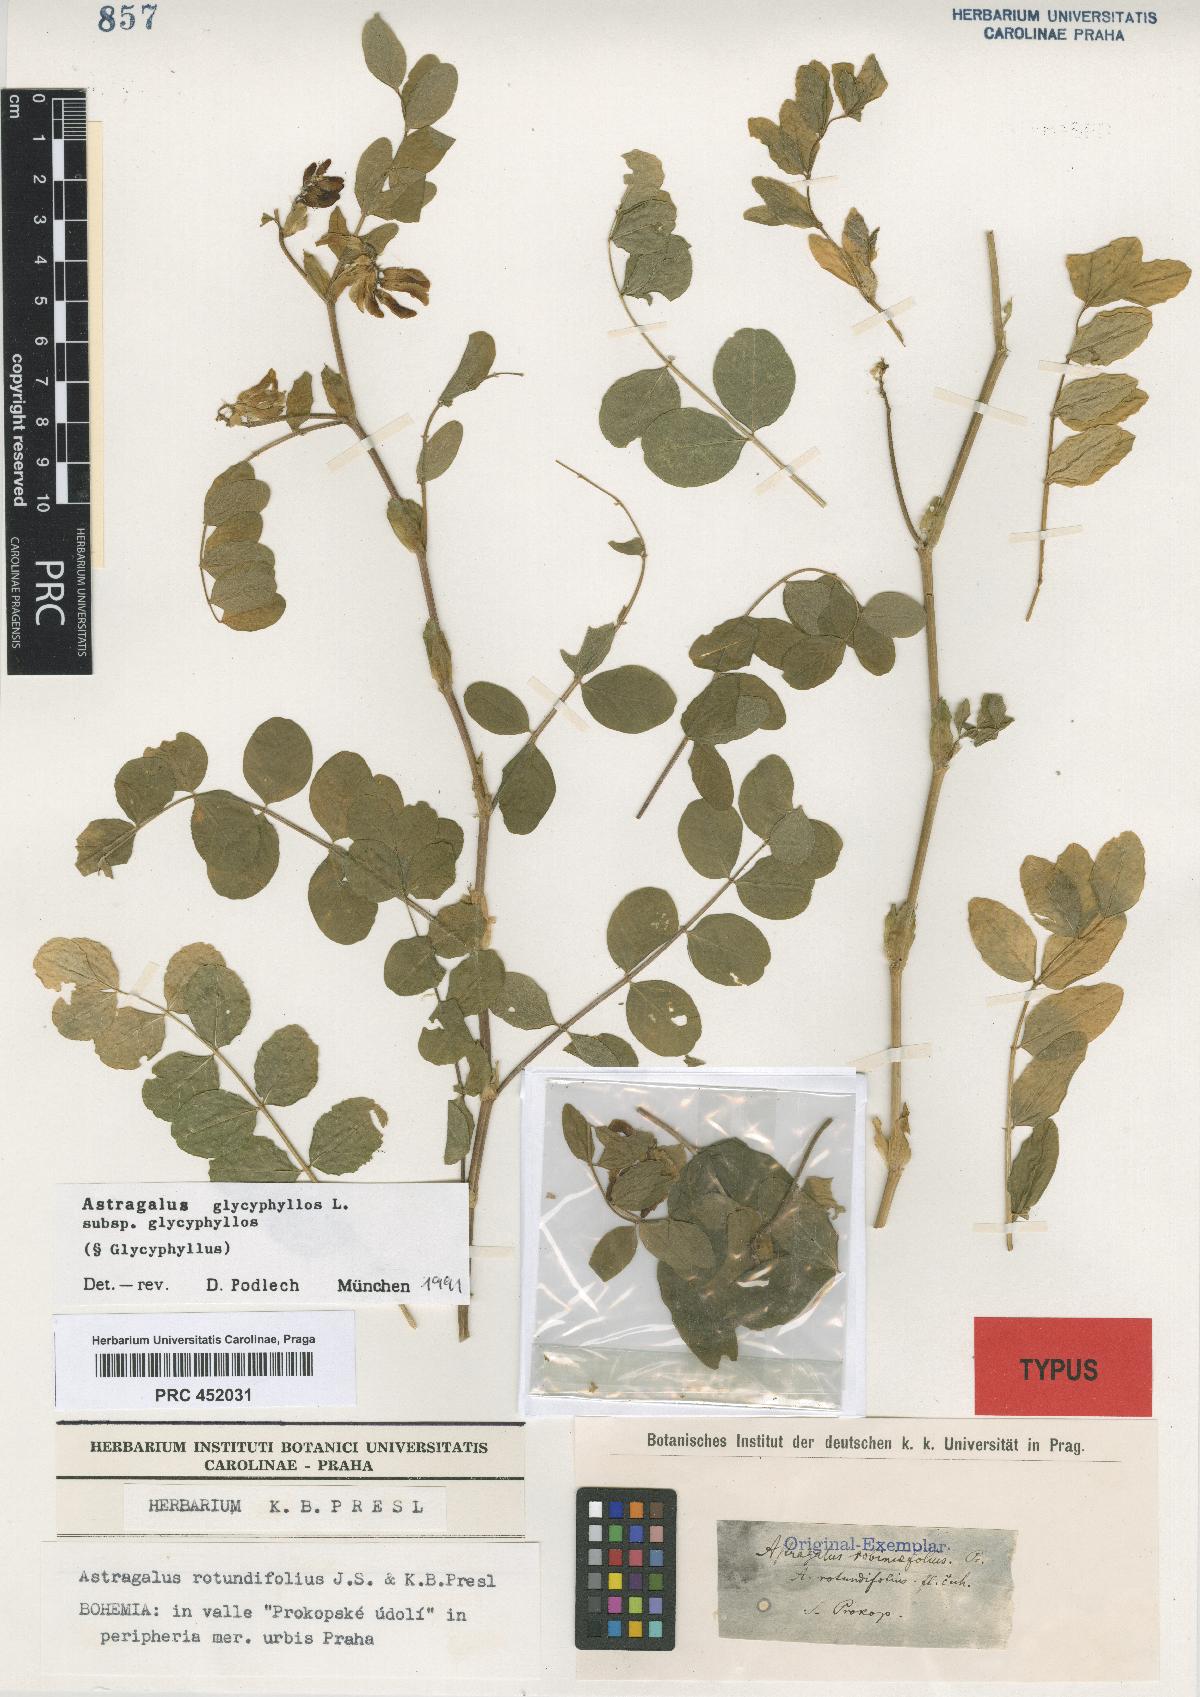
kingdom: Plantae
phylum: Tracheophyta
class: Magnoliopsida
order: Fabales
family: Fabaceae
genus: Astragalus
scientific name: Astragalus glycyphyllos
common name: Wild liquorice
